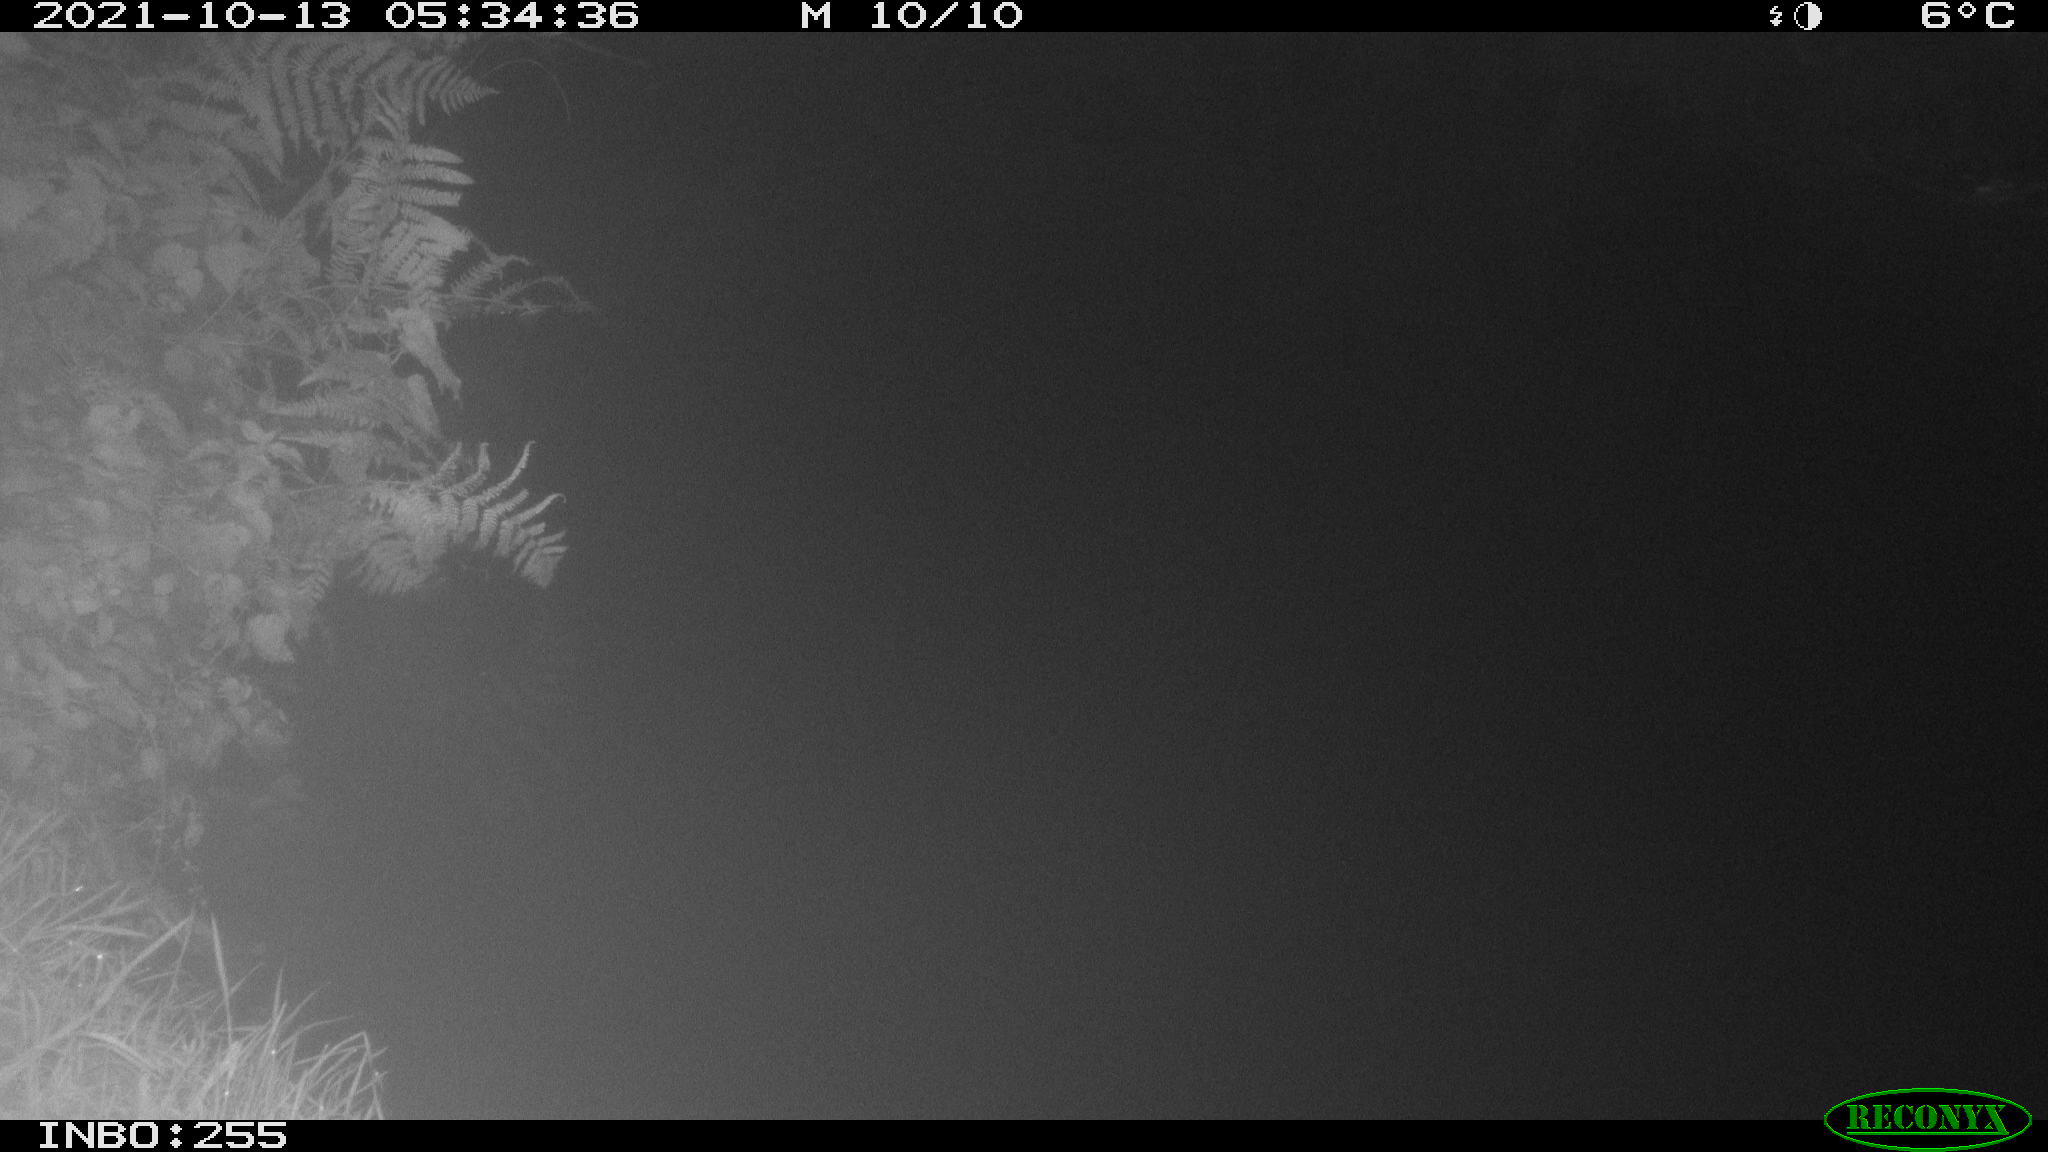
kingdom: Animalia
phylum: Chordata
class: Aves
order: Anseriformes
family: Anatidae
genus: Anas
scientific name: Anas platyrhynchos
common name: Mallard
